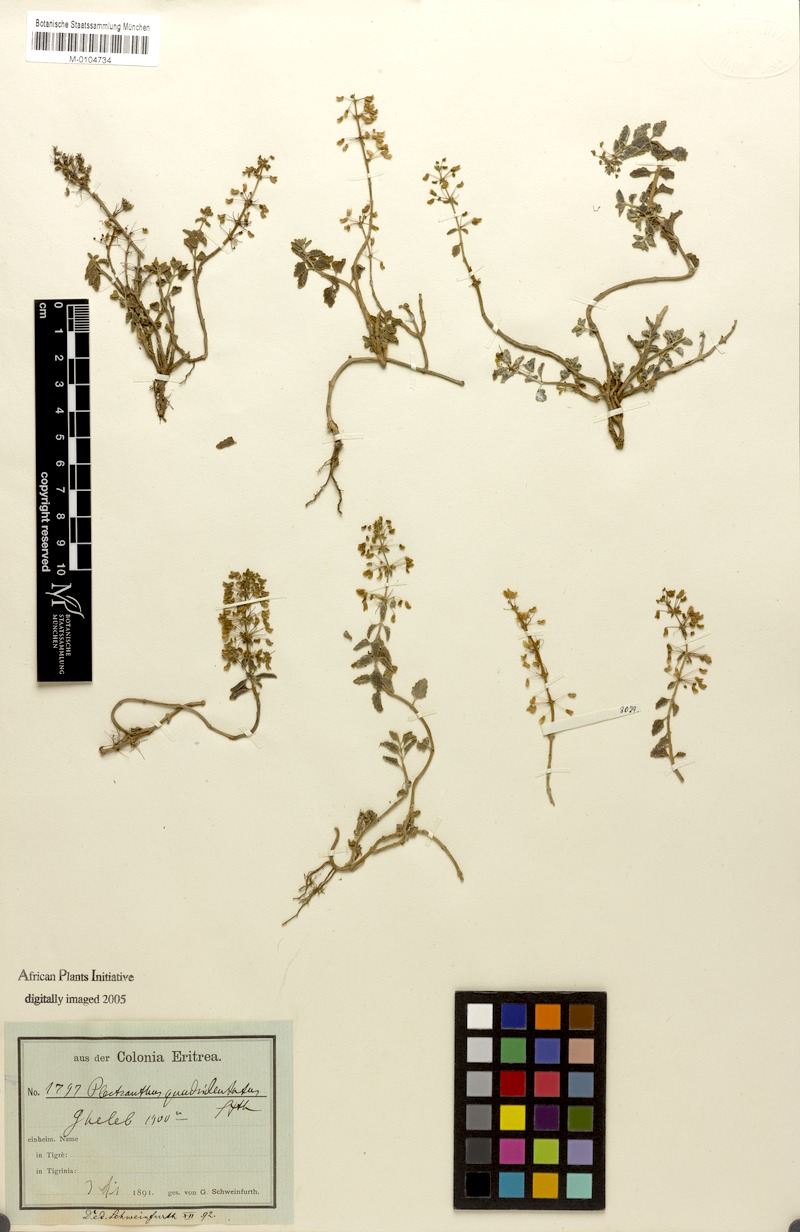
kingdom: Plantae
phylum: Tracheophyta
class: Magnoliopsida
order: Lamiales
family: Lamiaceae
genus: Coleus
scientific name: Coleus prostratus
